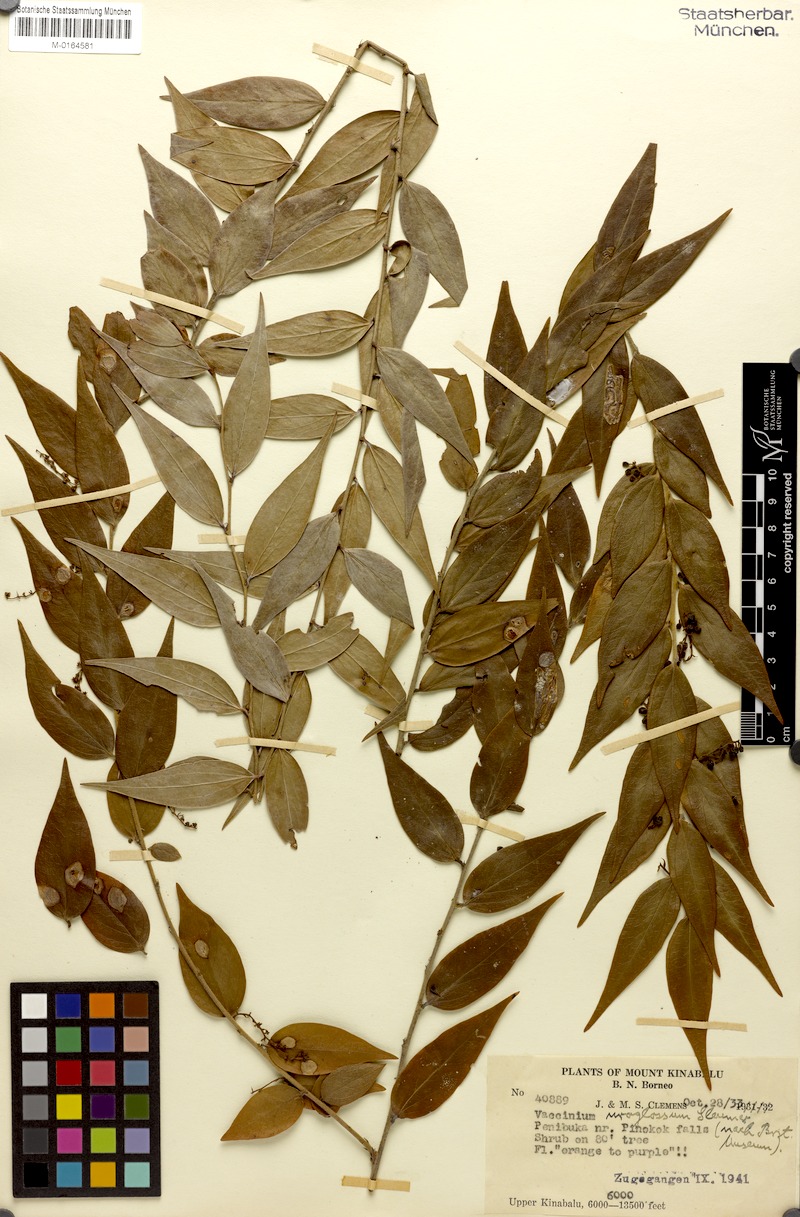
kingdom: Plantae
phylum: Tracheophyta
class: Magnoliopsida
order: Ericales
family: Ericaceae
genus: Rigiolepis
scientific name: Rigiolepis uroglossa
